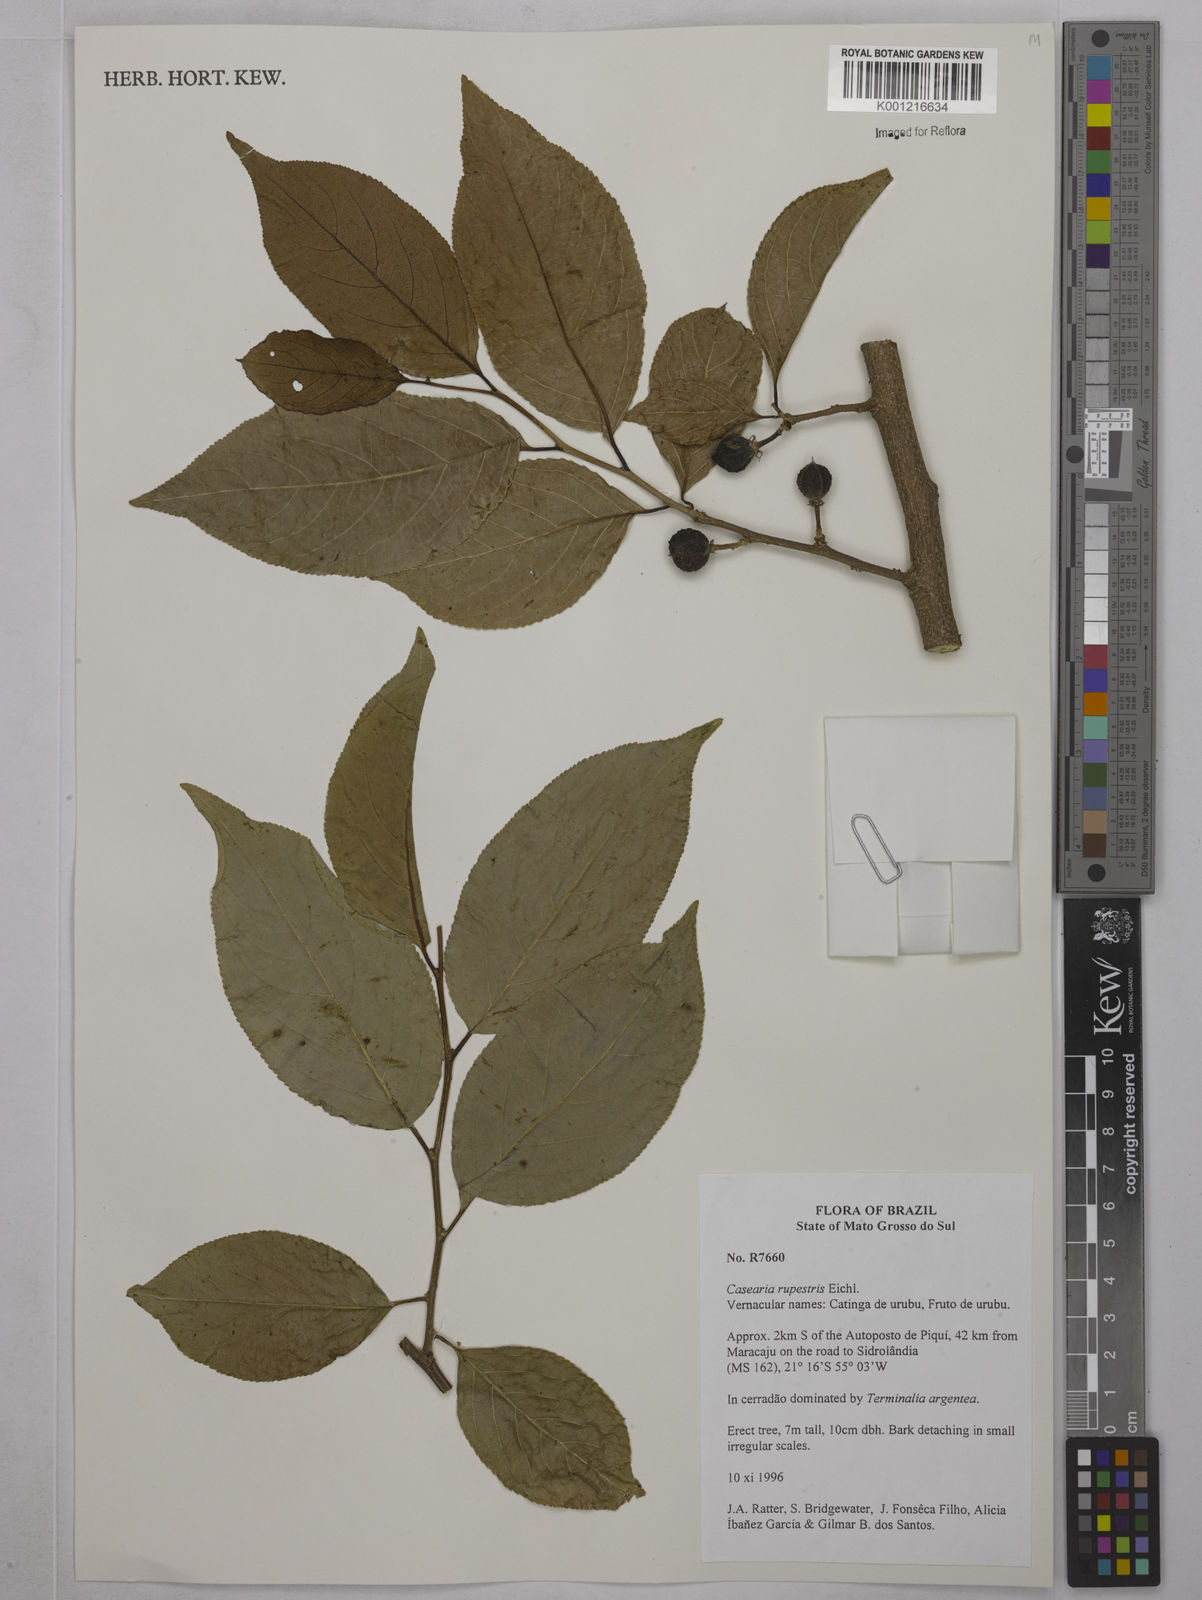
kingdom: Plantae
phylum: Tracheophyta
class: Magnoliopsida
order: Malpighiales
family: Salicaceae
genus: Casearia
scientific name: Casearia rupestris
